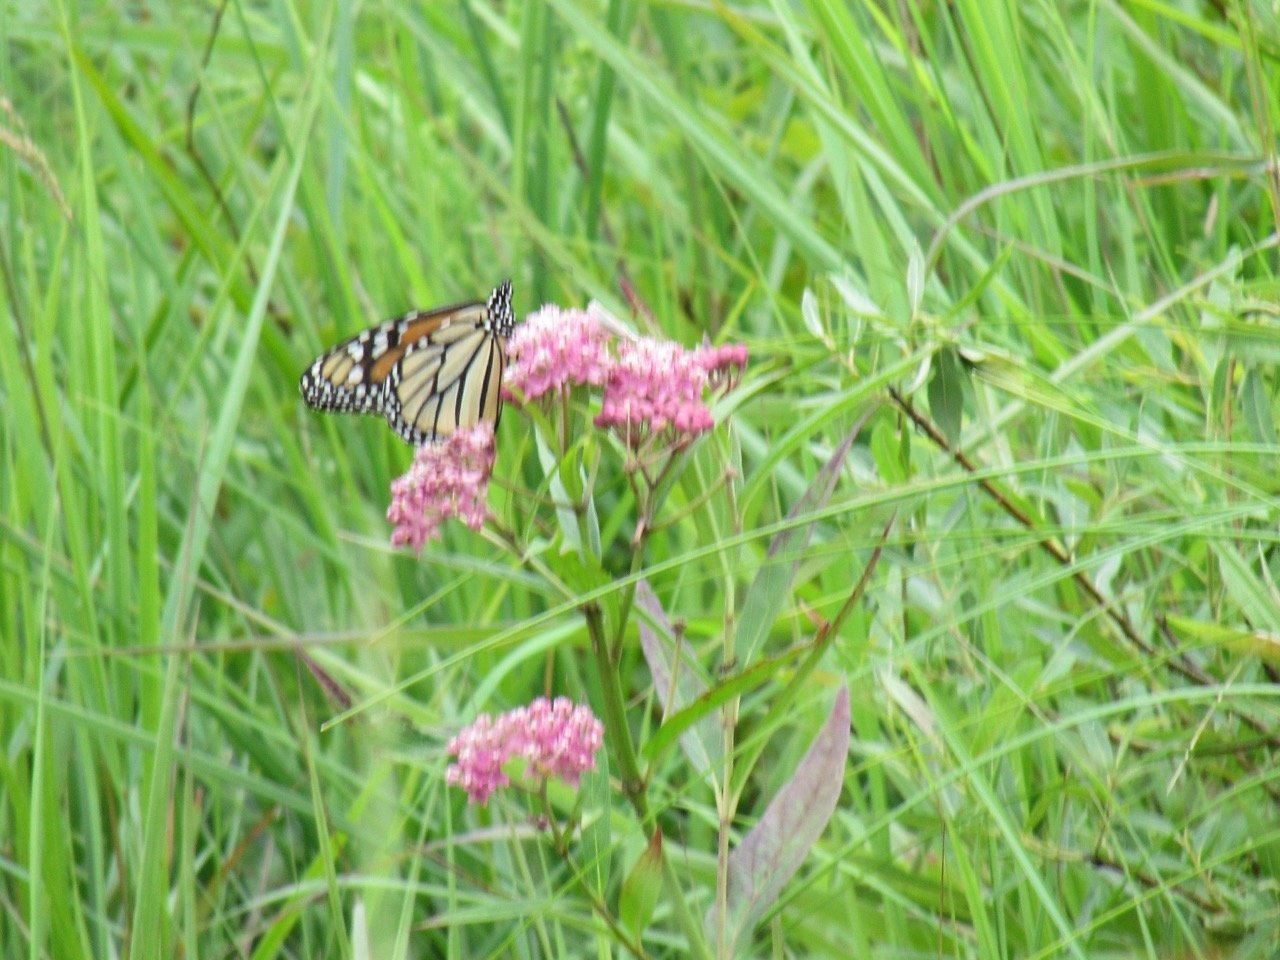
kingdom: Animalia
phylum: Arthropoda
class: Insecta
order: Lepidoptera
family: Nymphalidae
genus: Danaus
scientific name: Danaus plexippus
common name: Monarch
